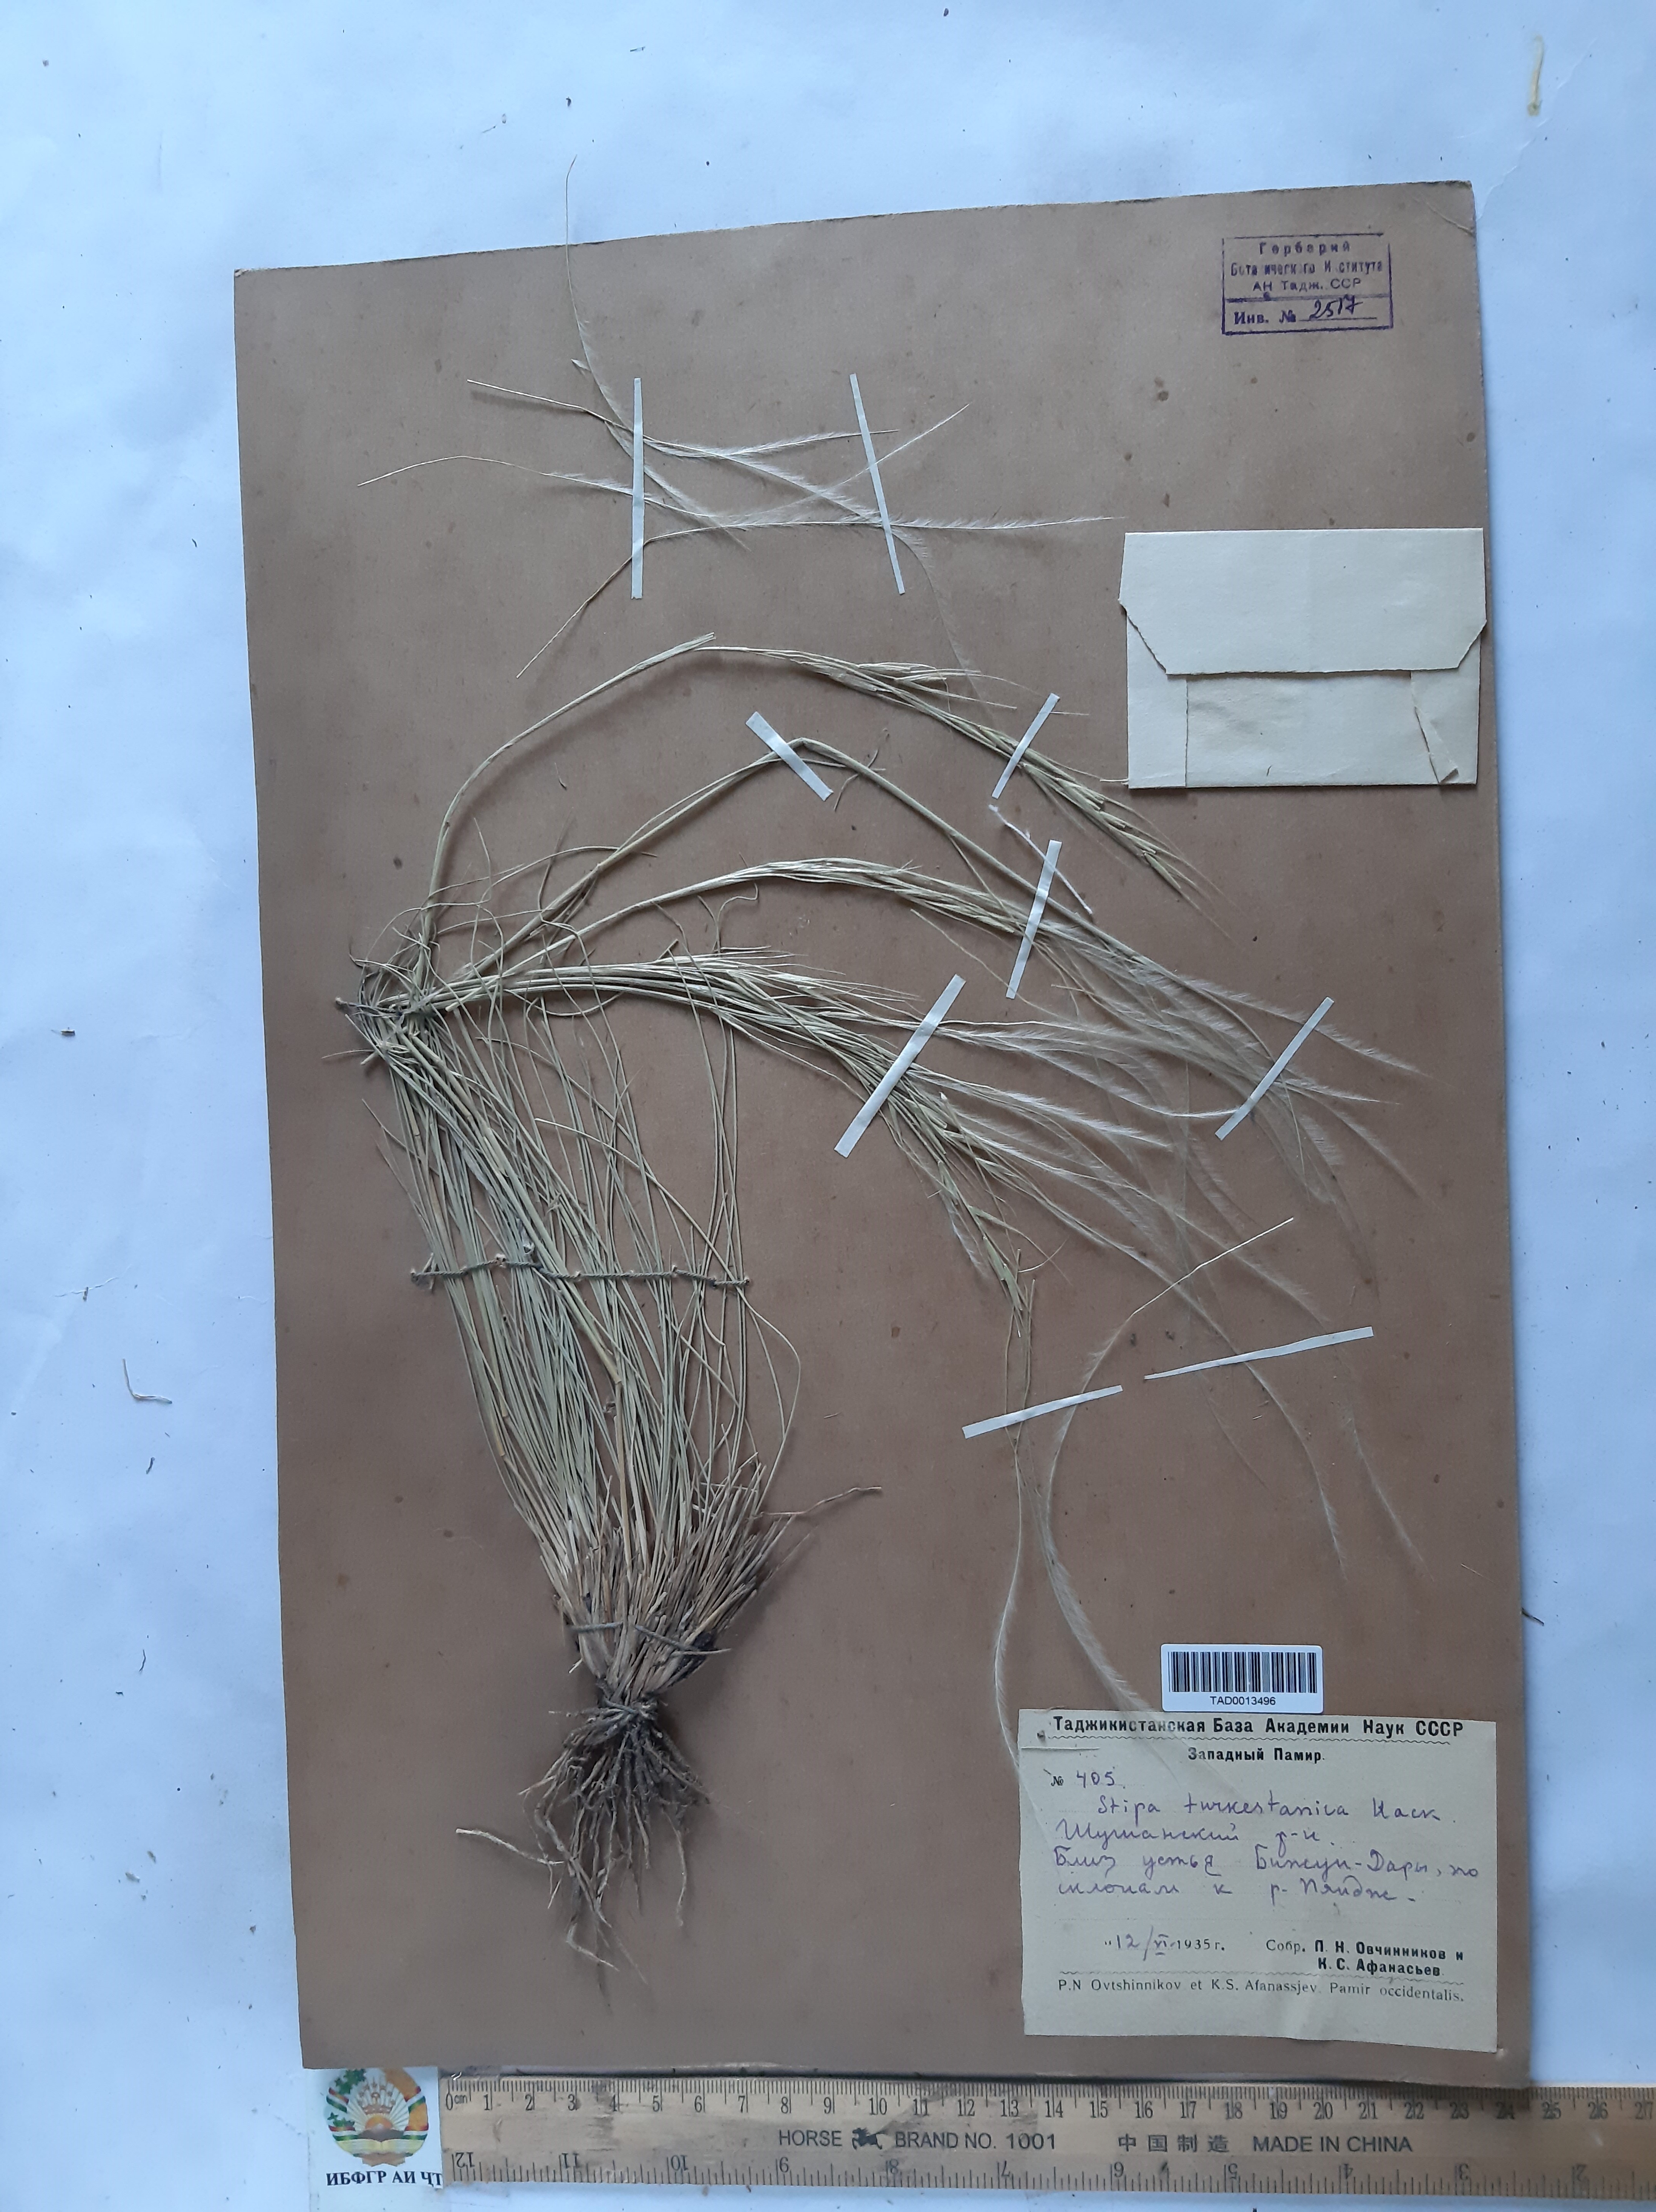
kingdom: Plantae
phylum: Tracheophyta
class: Liliopsida
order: Poales
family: Poaceae
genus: Stipa
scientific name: Stipa turkestanica
